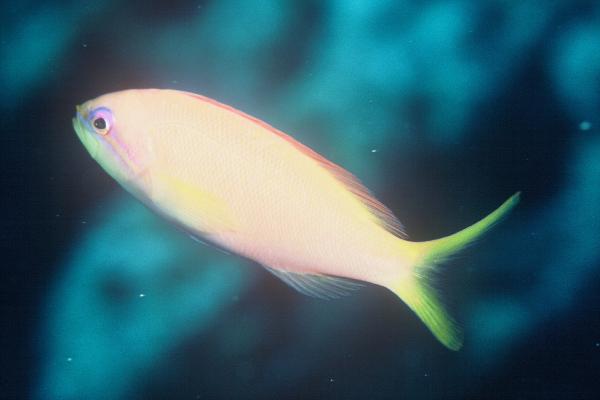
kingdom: Animalia
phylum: Chordata
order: Perciformes
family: Serranidae
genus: Pseudanthias
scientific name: Pseudanthias ignitus
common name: Flame basslet
